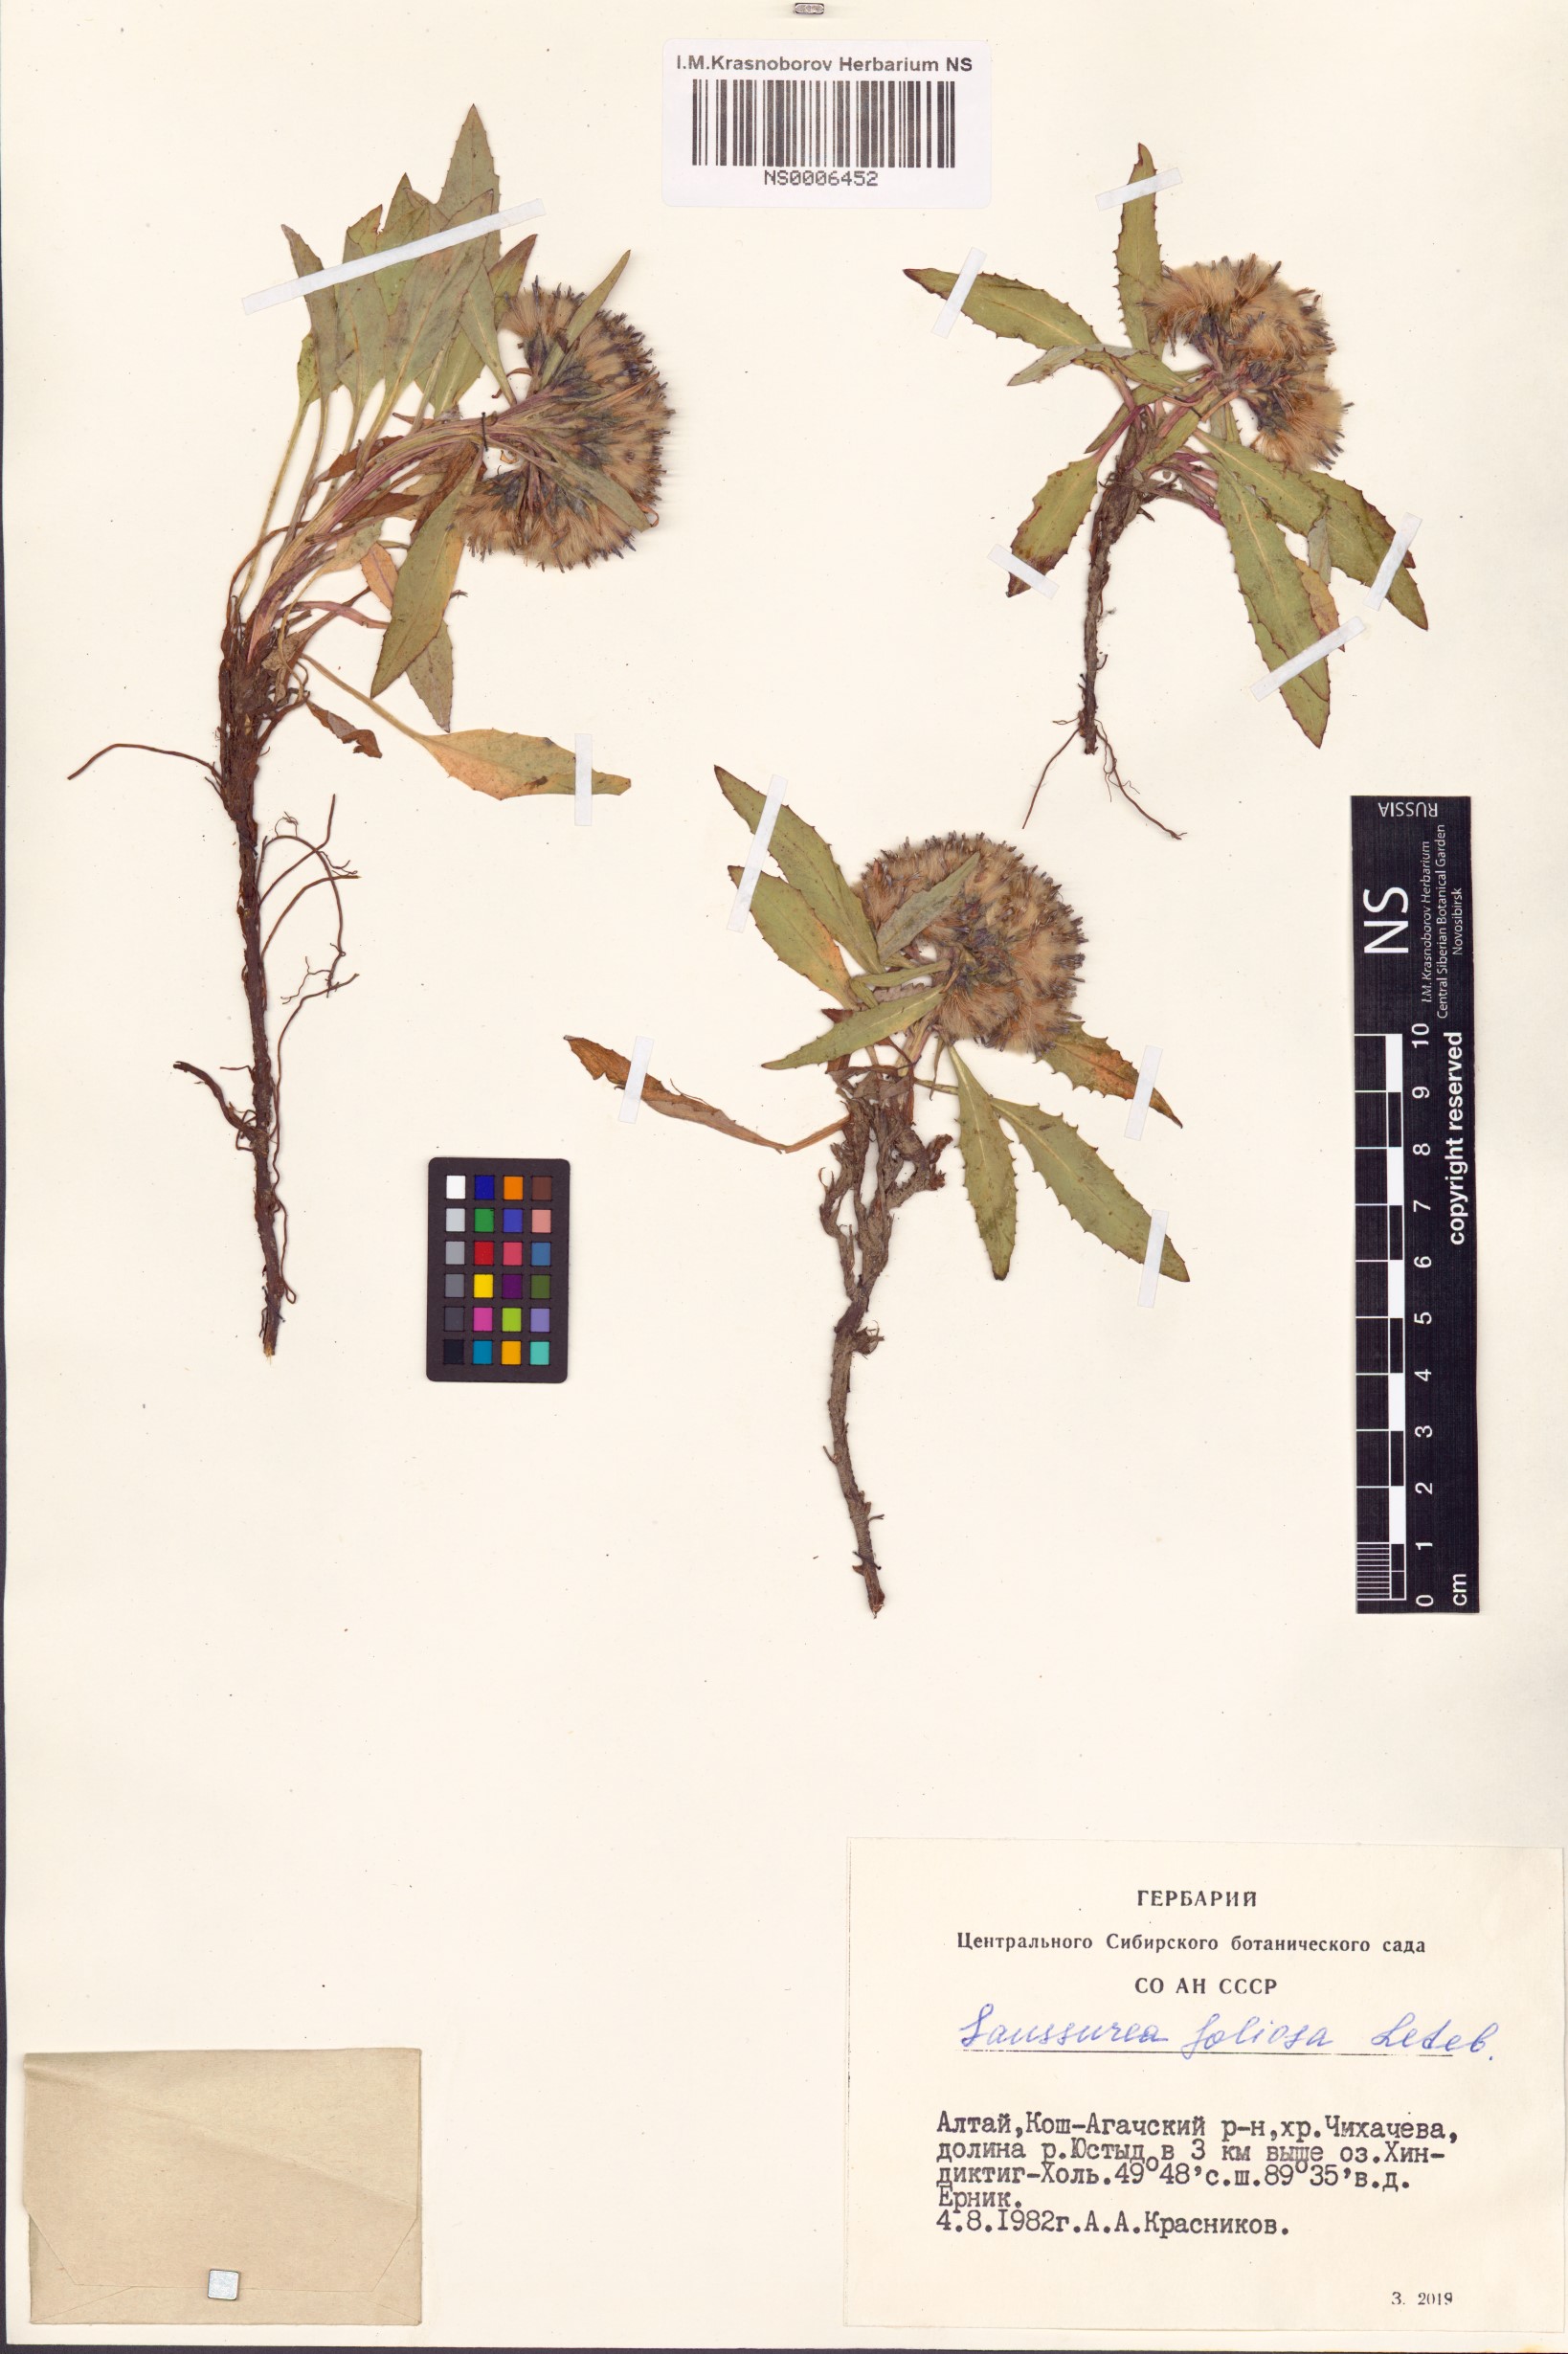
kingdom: Plantae
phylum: Tracheophyta
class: Magnoliopsida
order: Asterales
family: Asteraceae
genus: Saussurea
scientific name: Saussurea foliosa
